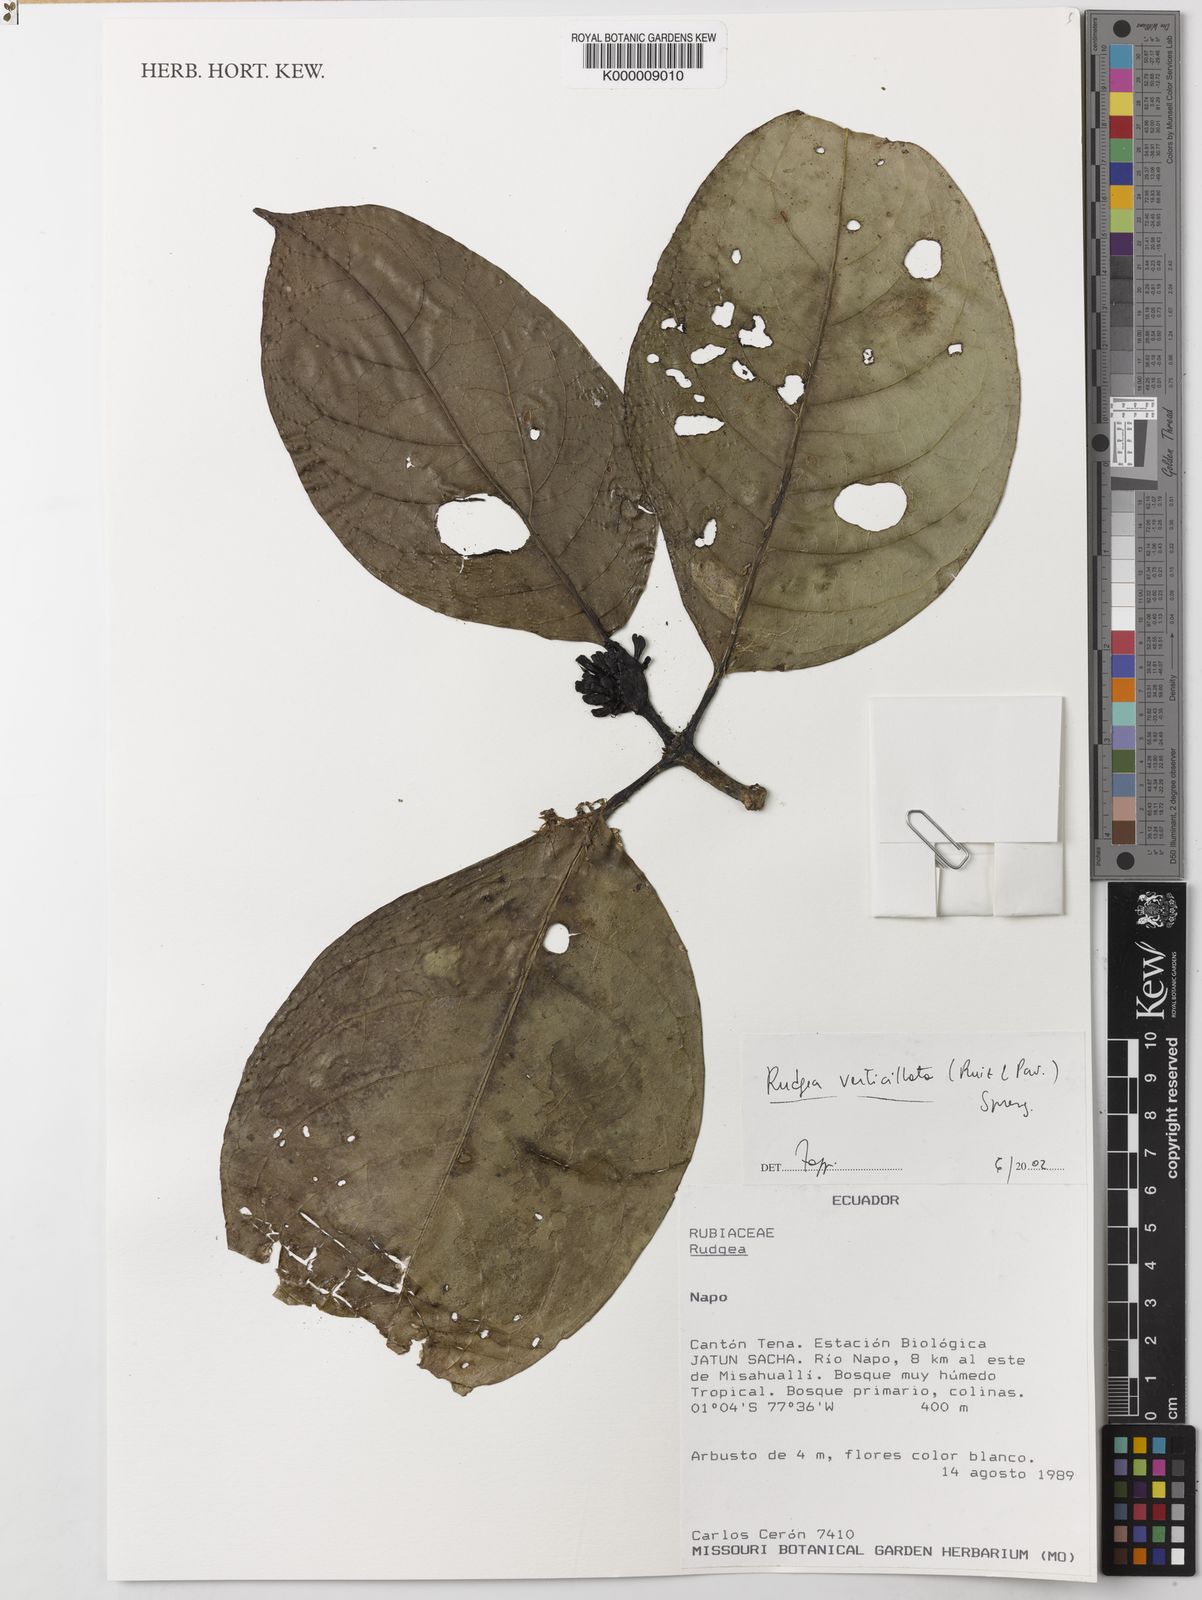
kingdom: Plantae
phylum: Tracheophyta
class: Magnoliopsida
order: Gentianales
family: Rubiaceae
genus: Rudgea
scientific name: Rudgea verticillata
